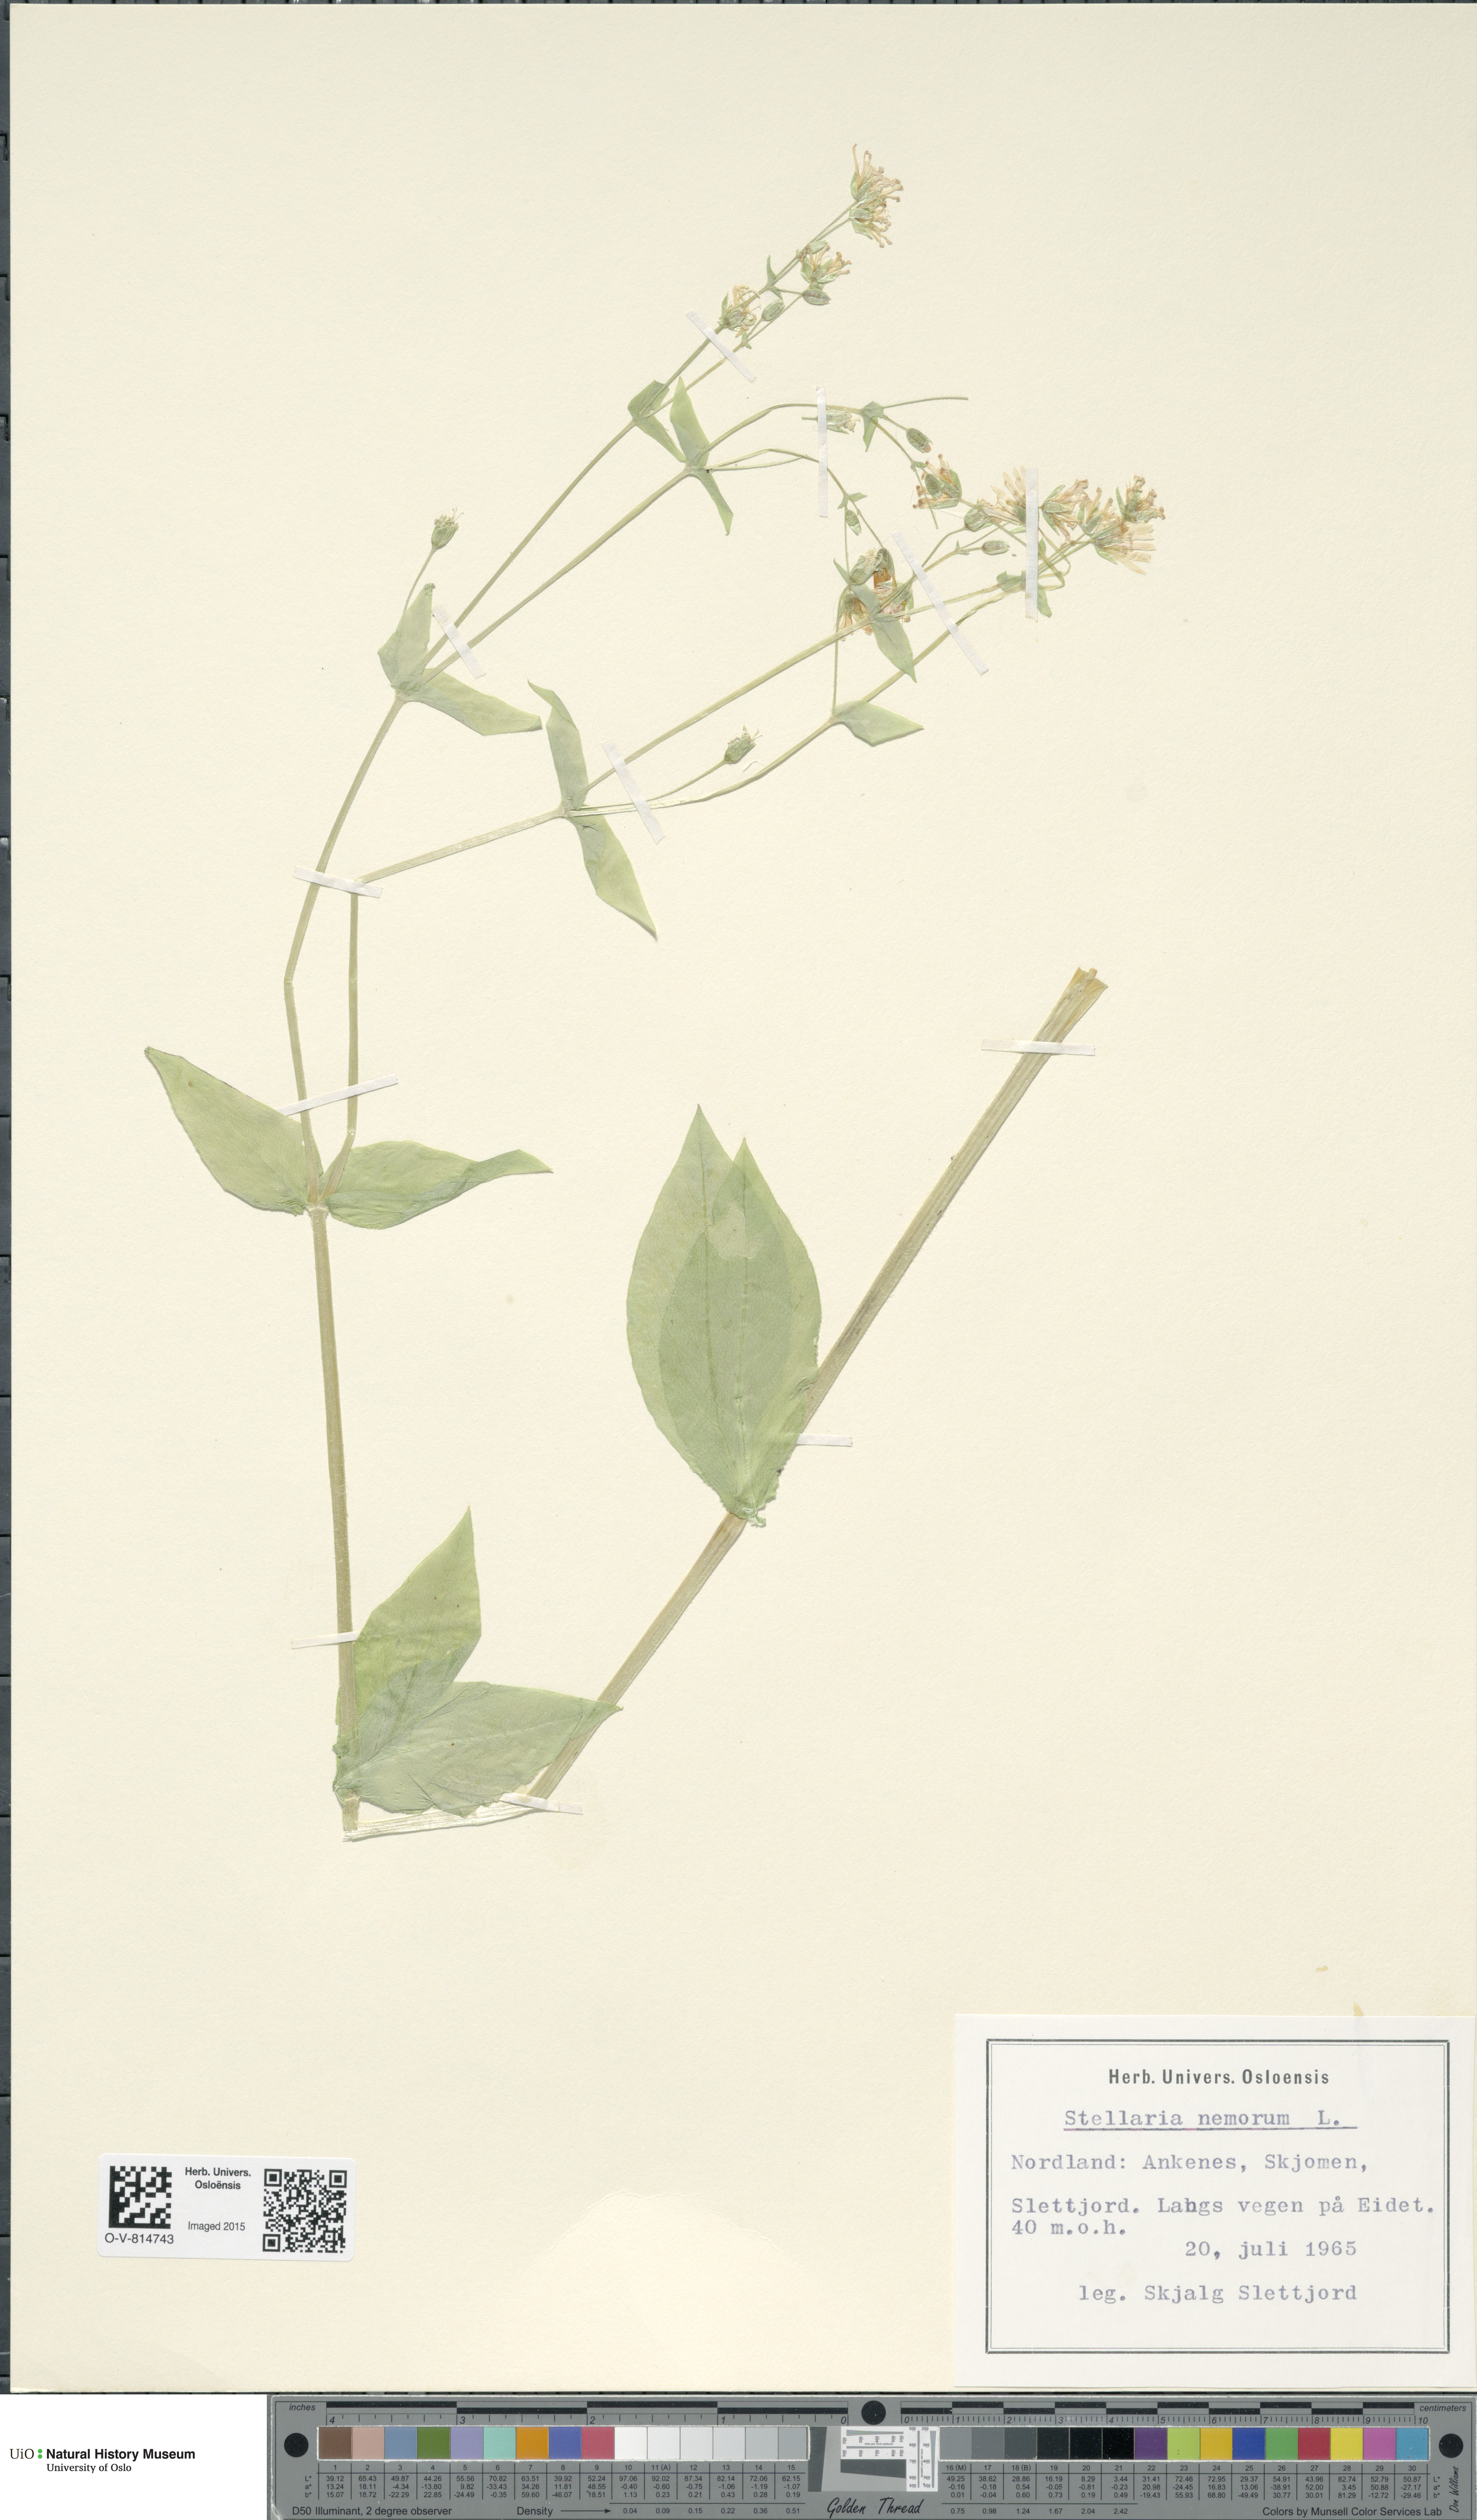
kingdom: Plantae
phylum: Tracheophyta
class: Magnoliopsida
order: Caryophyllales
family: Caryophyllaceae
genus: Stellaria
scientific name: Stellaria nemorum
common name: Wood stitchwort
